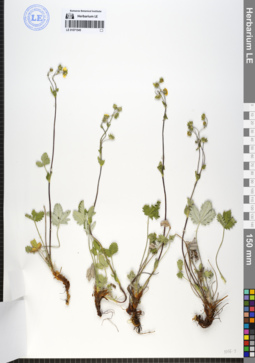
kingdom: Plantae
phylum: Tracheophyta
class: Magnoliopsida
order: Rosales
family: Rosaceae
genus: Potentilla
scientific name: Potentilla evestita
